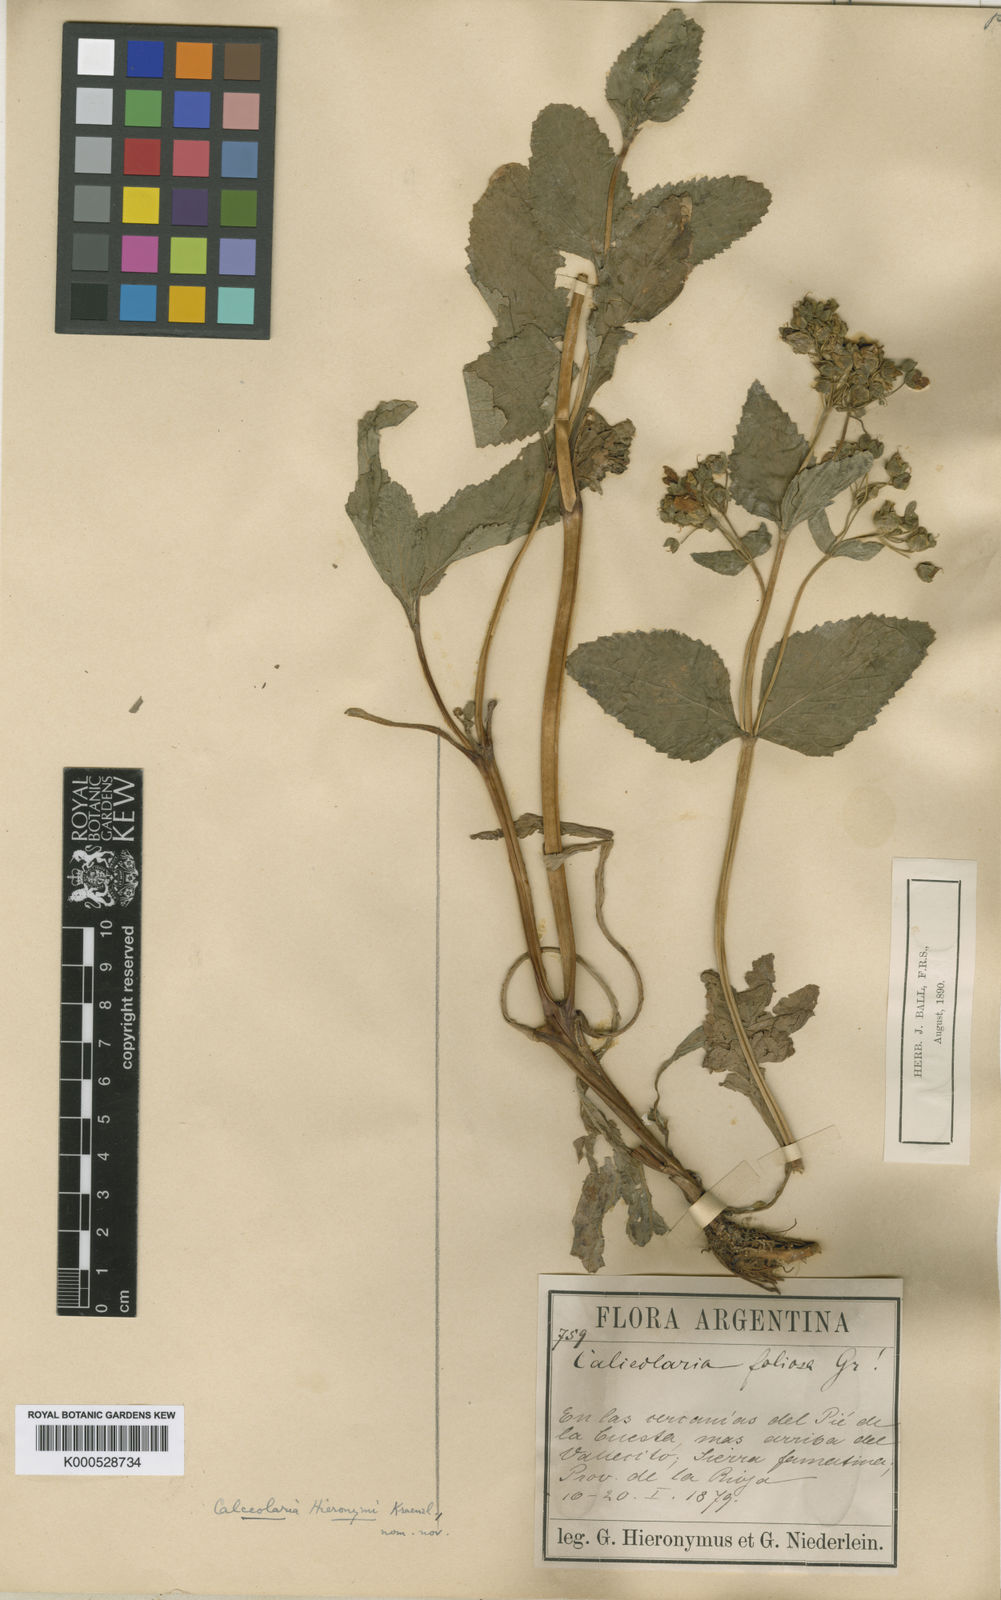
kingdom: Plantae
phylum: Tracheophyta
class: Magnoliopsida
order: Lamiales
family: Calceolariaceae
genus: Calceolaria
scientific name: Calceolaria plectranthifolia
